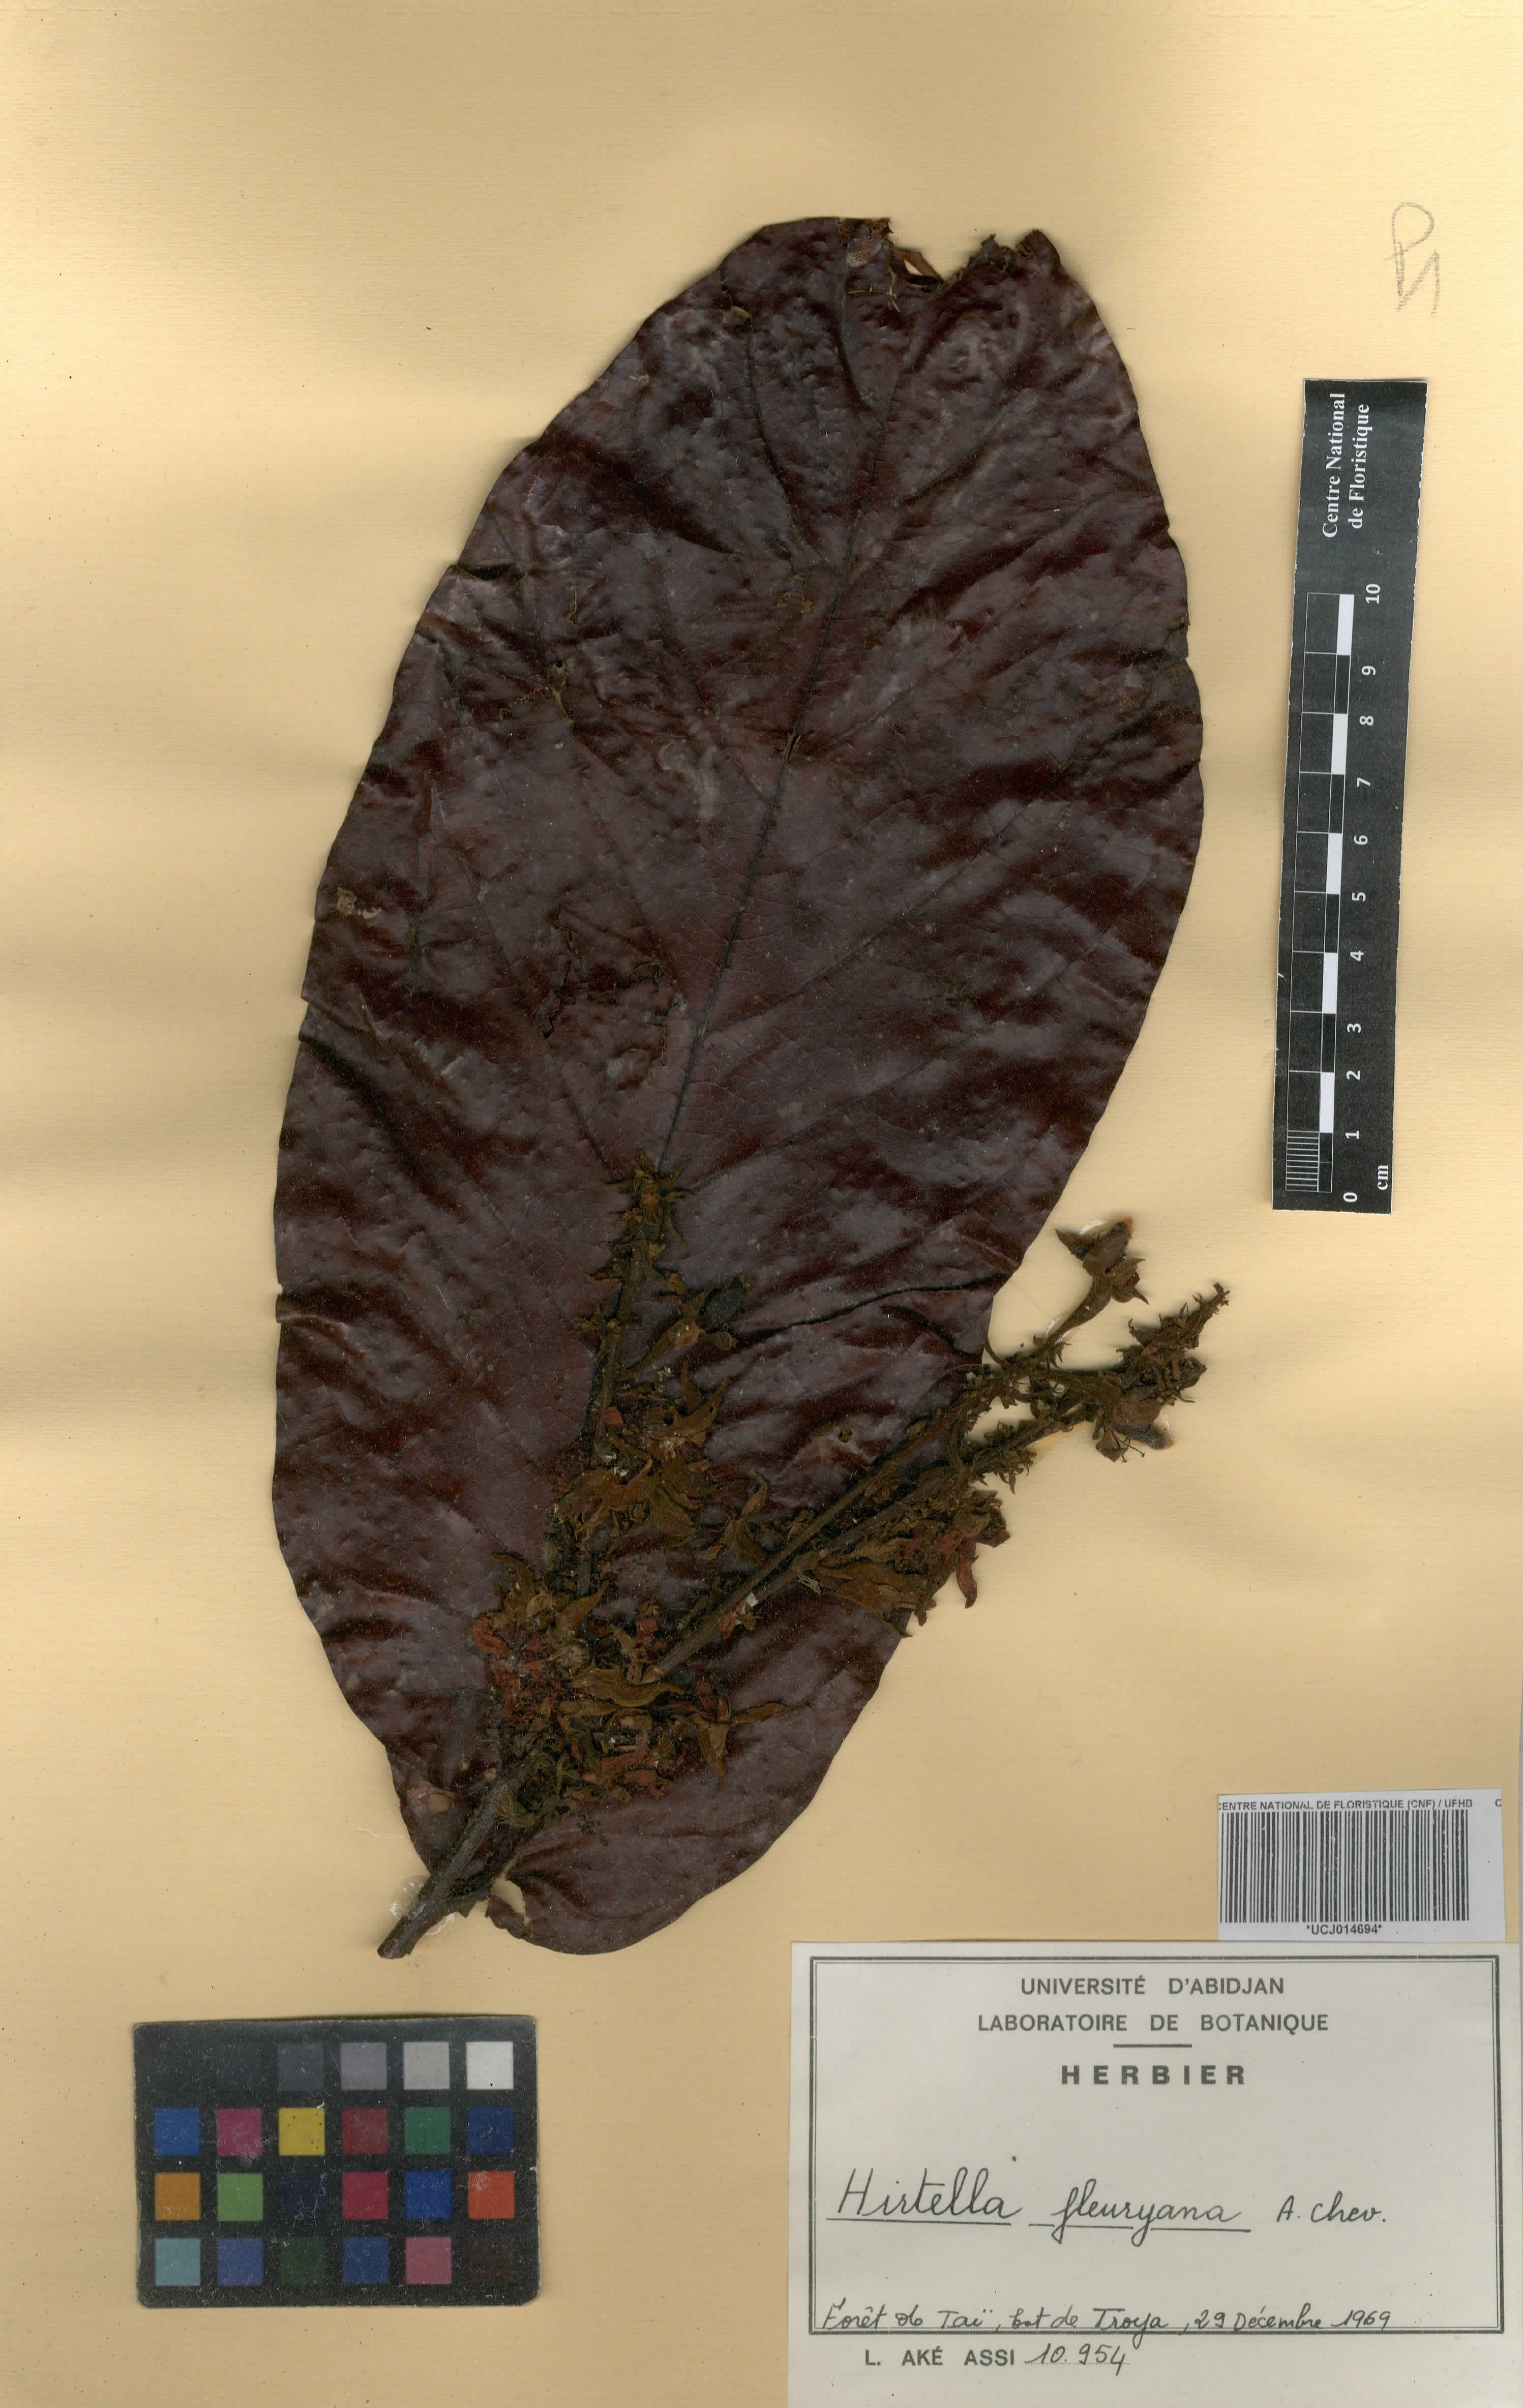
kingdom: Plantae
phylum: Tracheophyta
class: Magnoliopsida
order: Malpighiales
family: Chrysobalanaceae
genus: Magnistipula
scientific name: Magnistipula zenkeri
